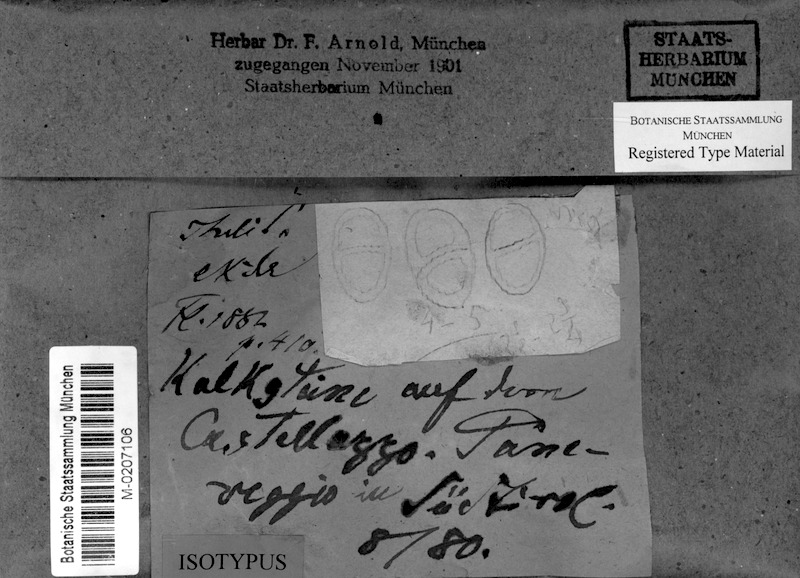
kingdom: Fungi
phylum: Ascomycota
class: Eurotiomycetes
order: Verrucariales
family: Verrucariaceae
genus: Thelidium
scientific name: Thelidium minutulum
